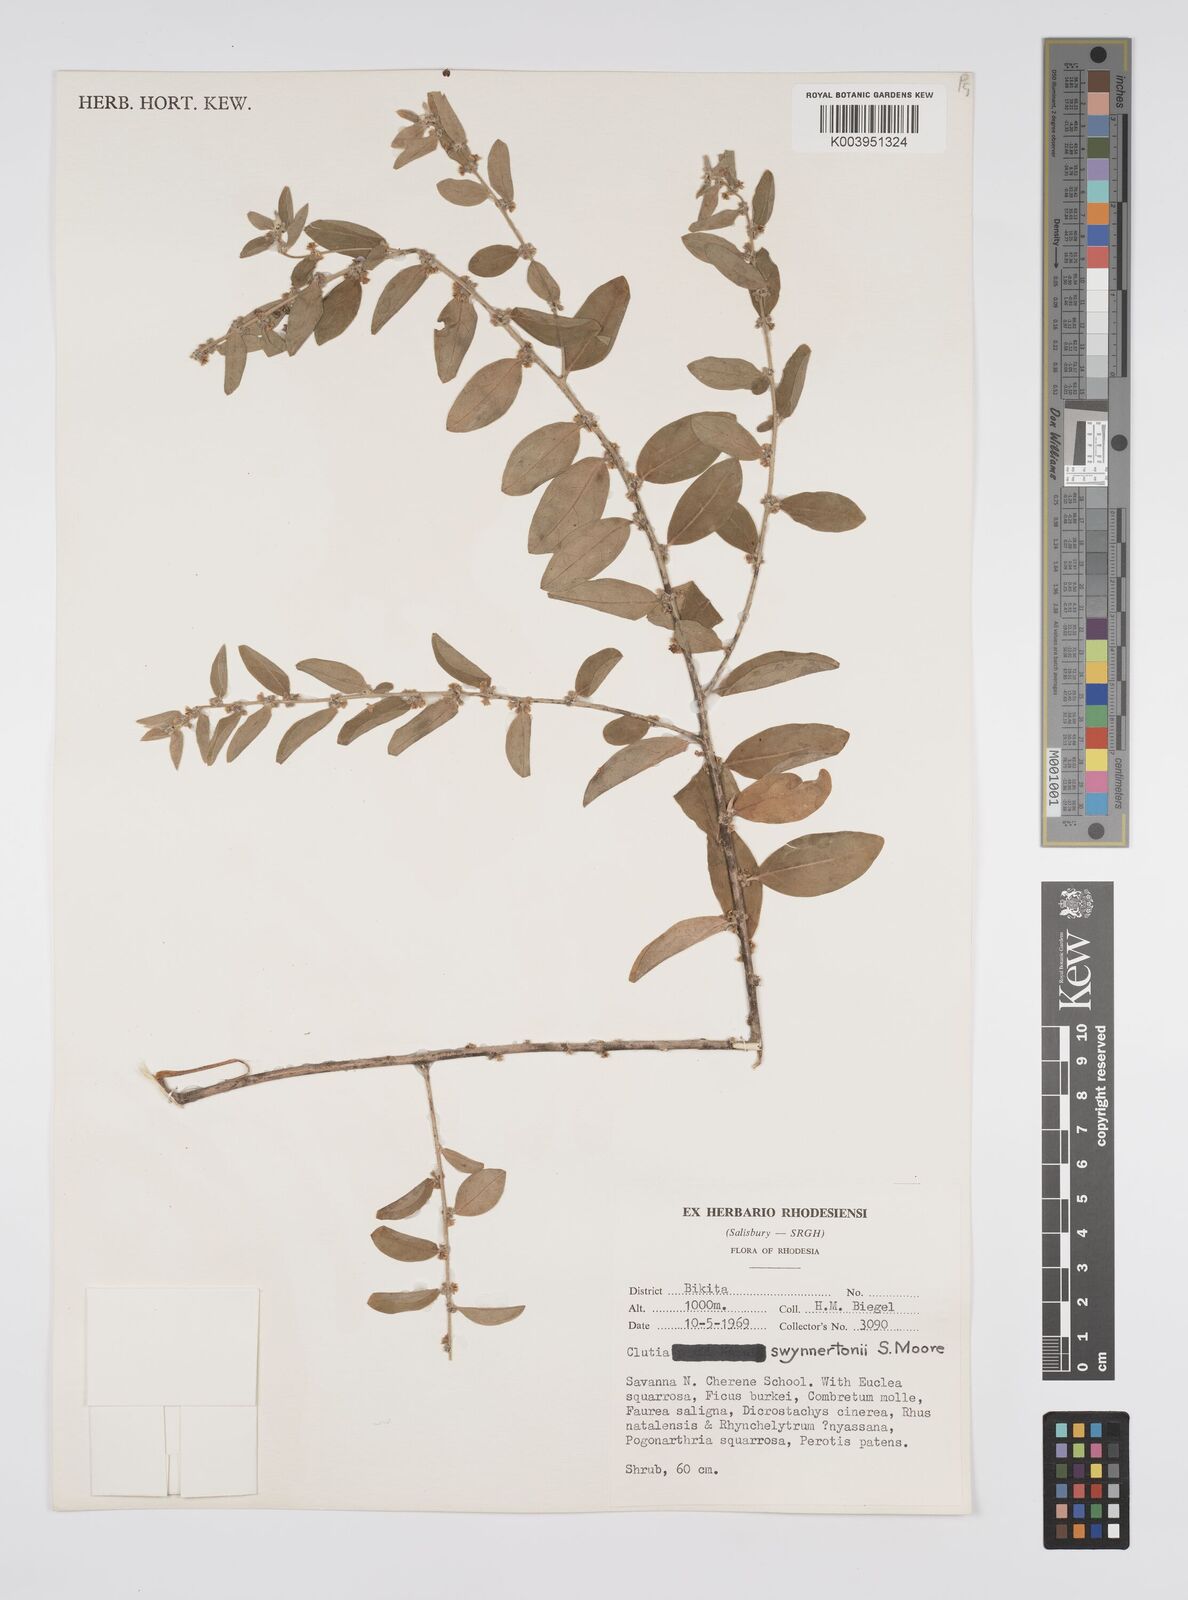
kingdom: Plantae
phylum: Tracheophyta
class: Magnoliopsida
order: Malpighiales
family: Peraceae
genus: Clutia
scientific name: Clutia swynnertonii
